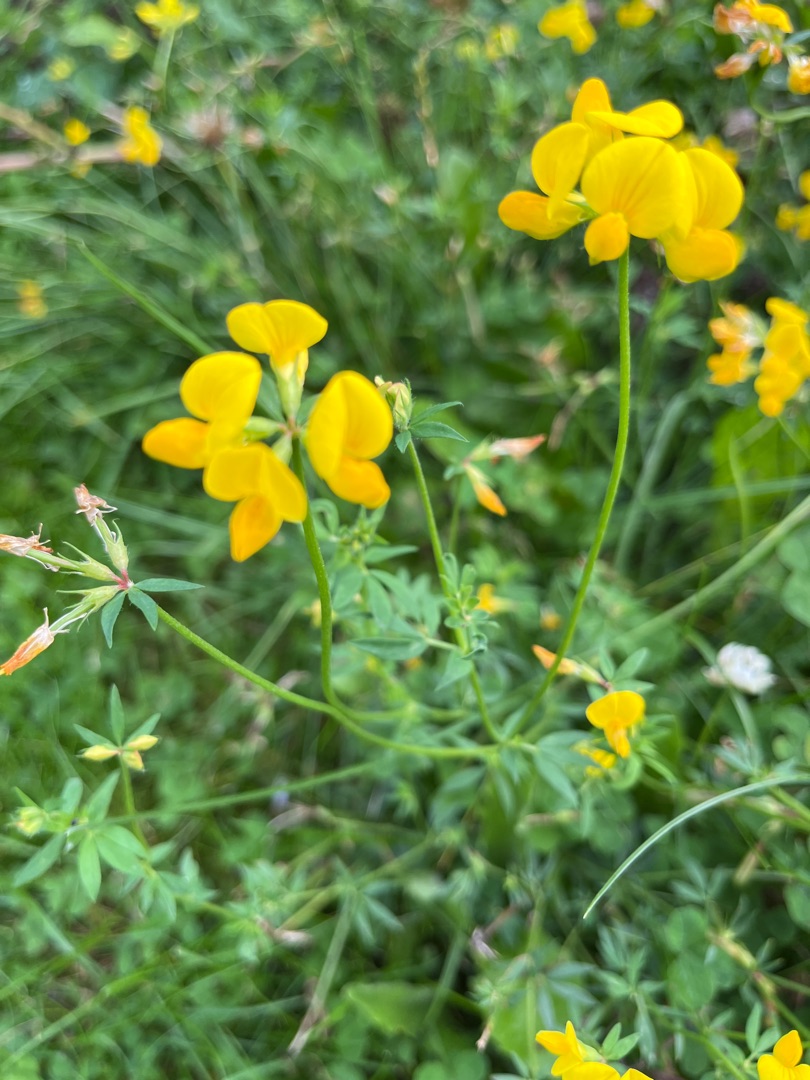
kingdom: Plantae
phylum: Tracheophyta
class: Magnoliopsida
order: Fabales
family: Fabaceae
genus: Lotus
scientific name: Lotus corniculatus
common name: Almindelig kællingetand
